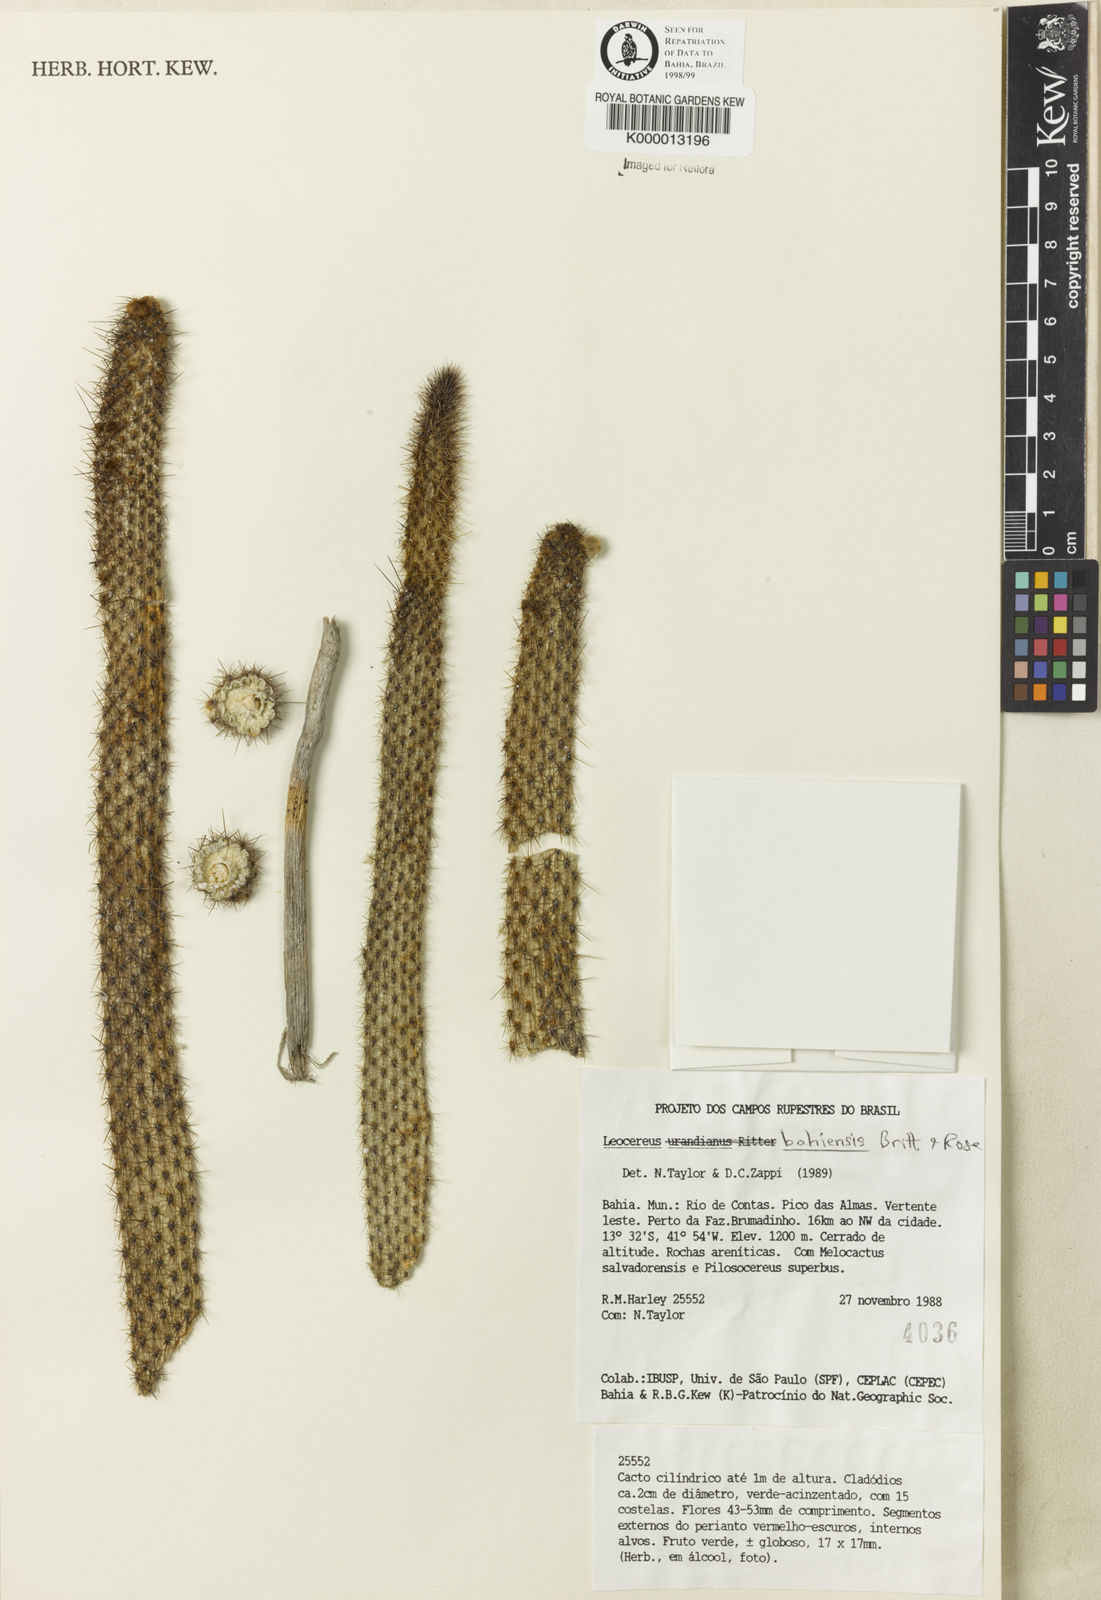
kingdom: Plantae
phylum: Tracheophyta
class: Magnoliopsida
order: Caryophyllales
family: Cactaceae
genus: Leocereus
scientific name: Leocereus bahiensis
